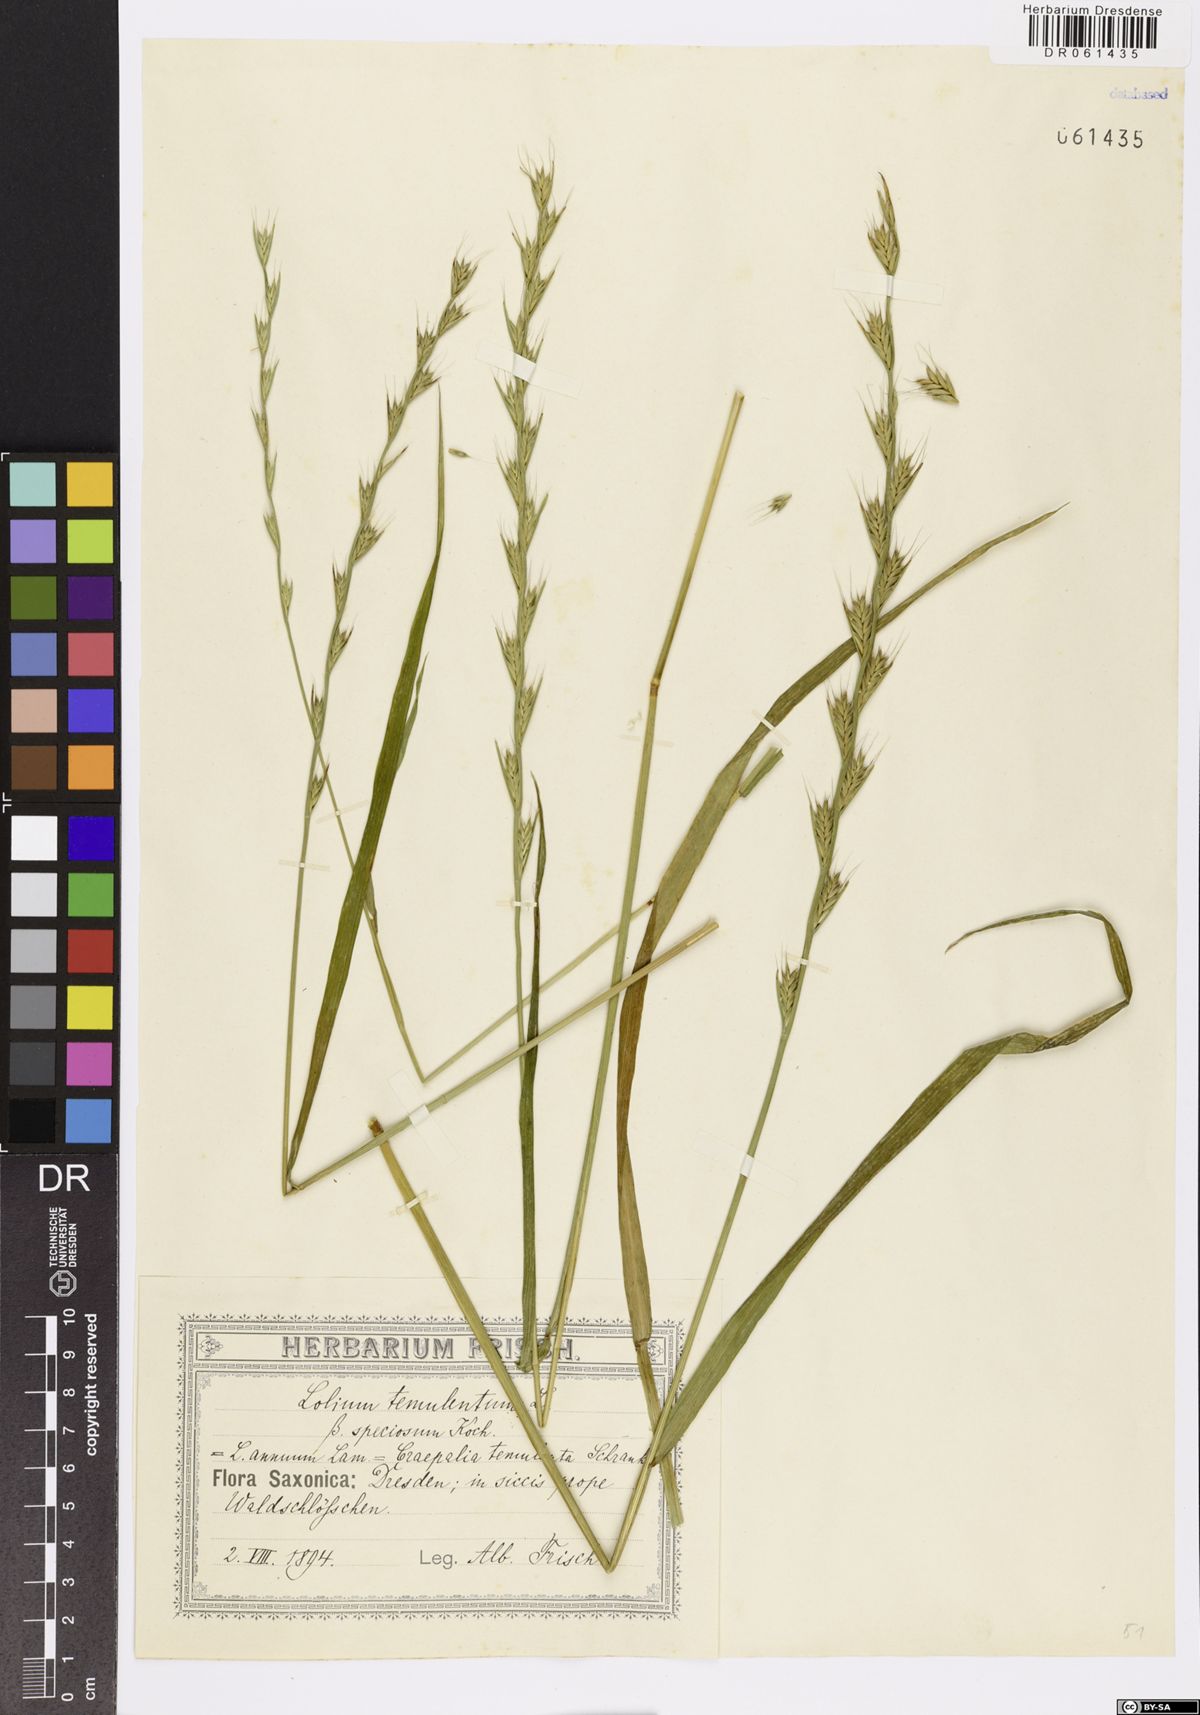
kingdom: Plantae
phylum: Tracheophyta
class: Liliopsida
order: Poales
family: Poaceae
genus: Lolium
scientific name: Lolium temulentum
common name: Darnel
